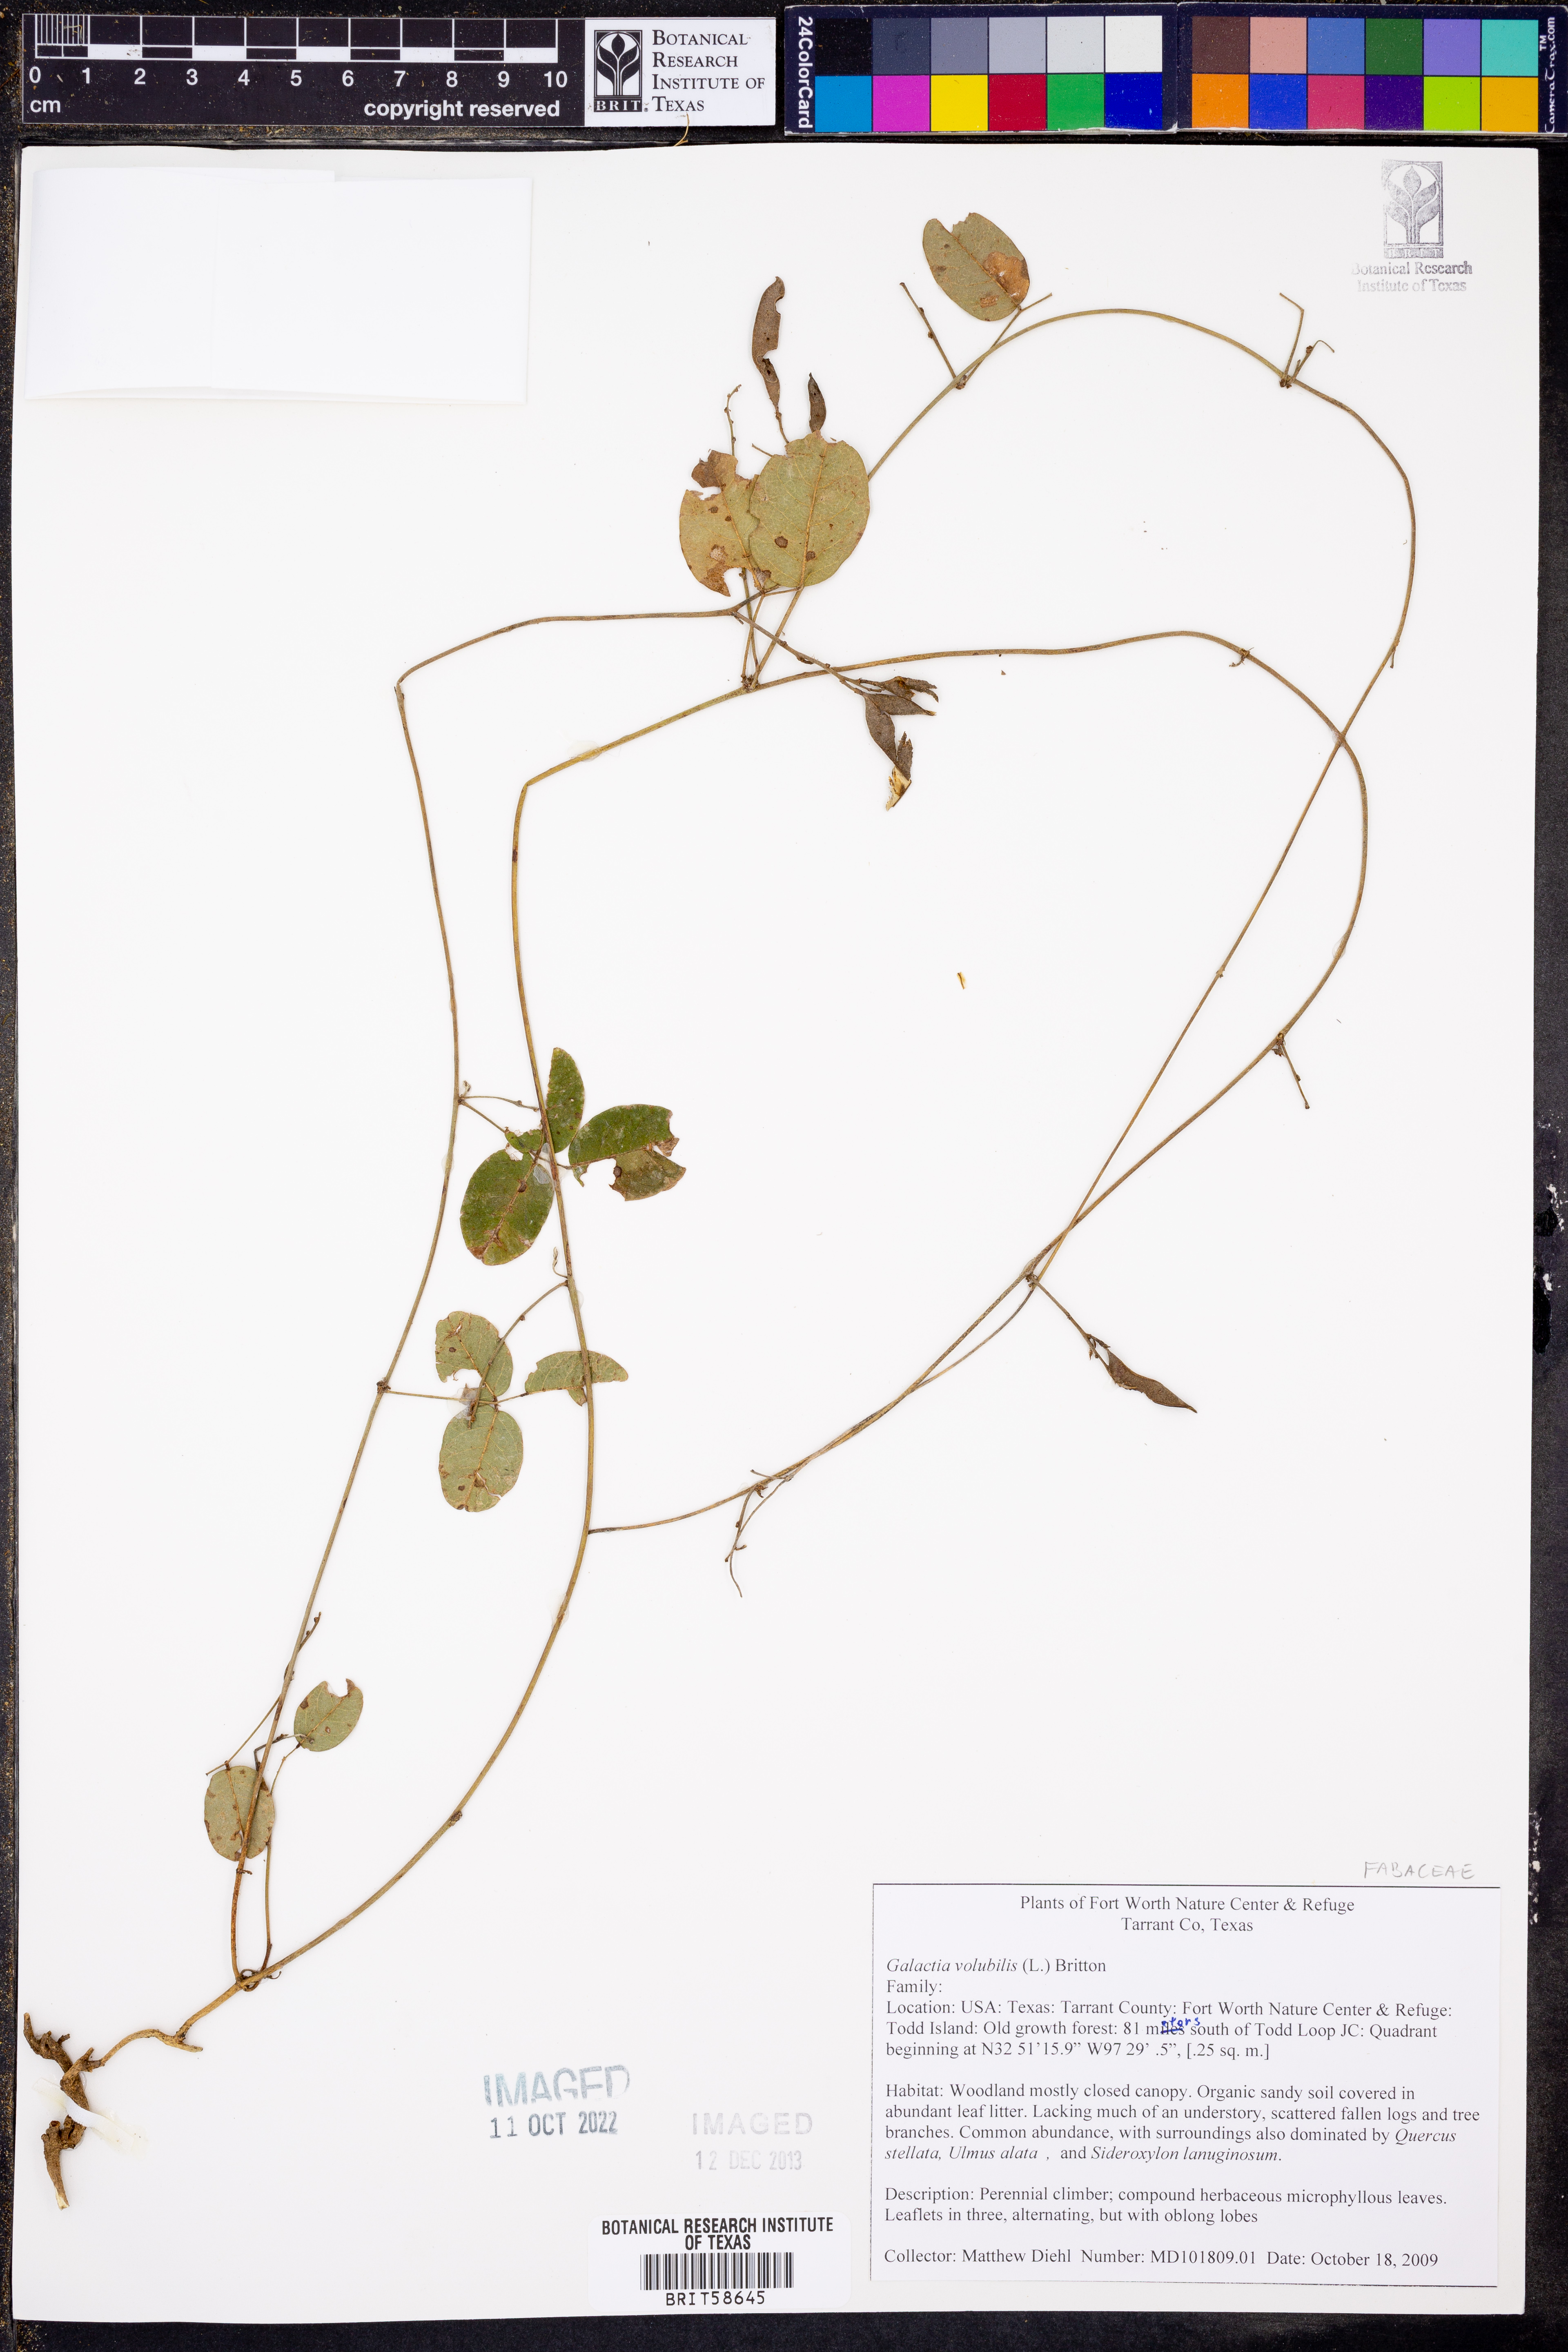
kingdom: Plantae
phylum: Tracheophyta
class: Magnoliopsida
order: Fabales
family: Fabaceae
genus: Galactia
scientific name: Galactia volubilis
